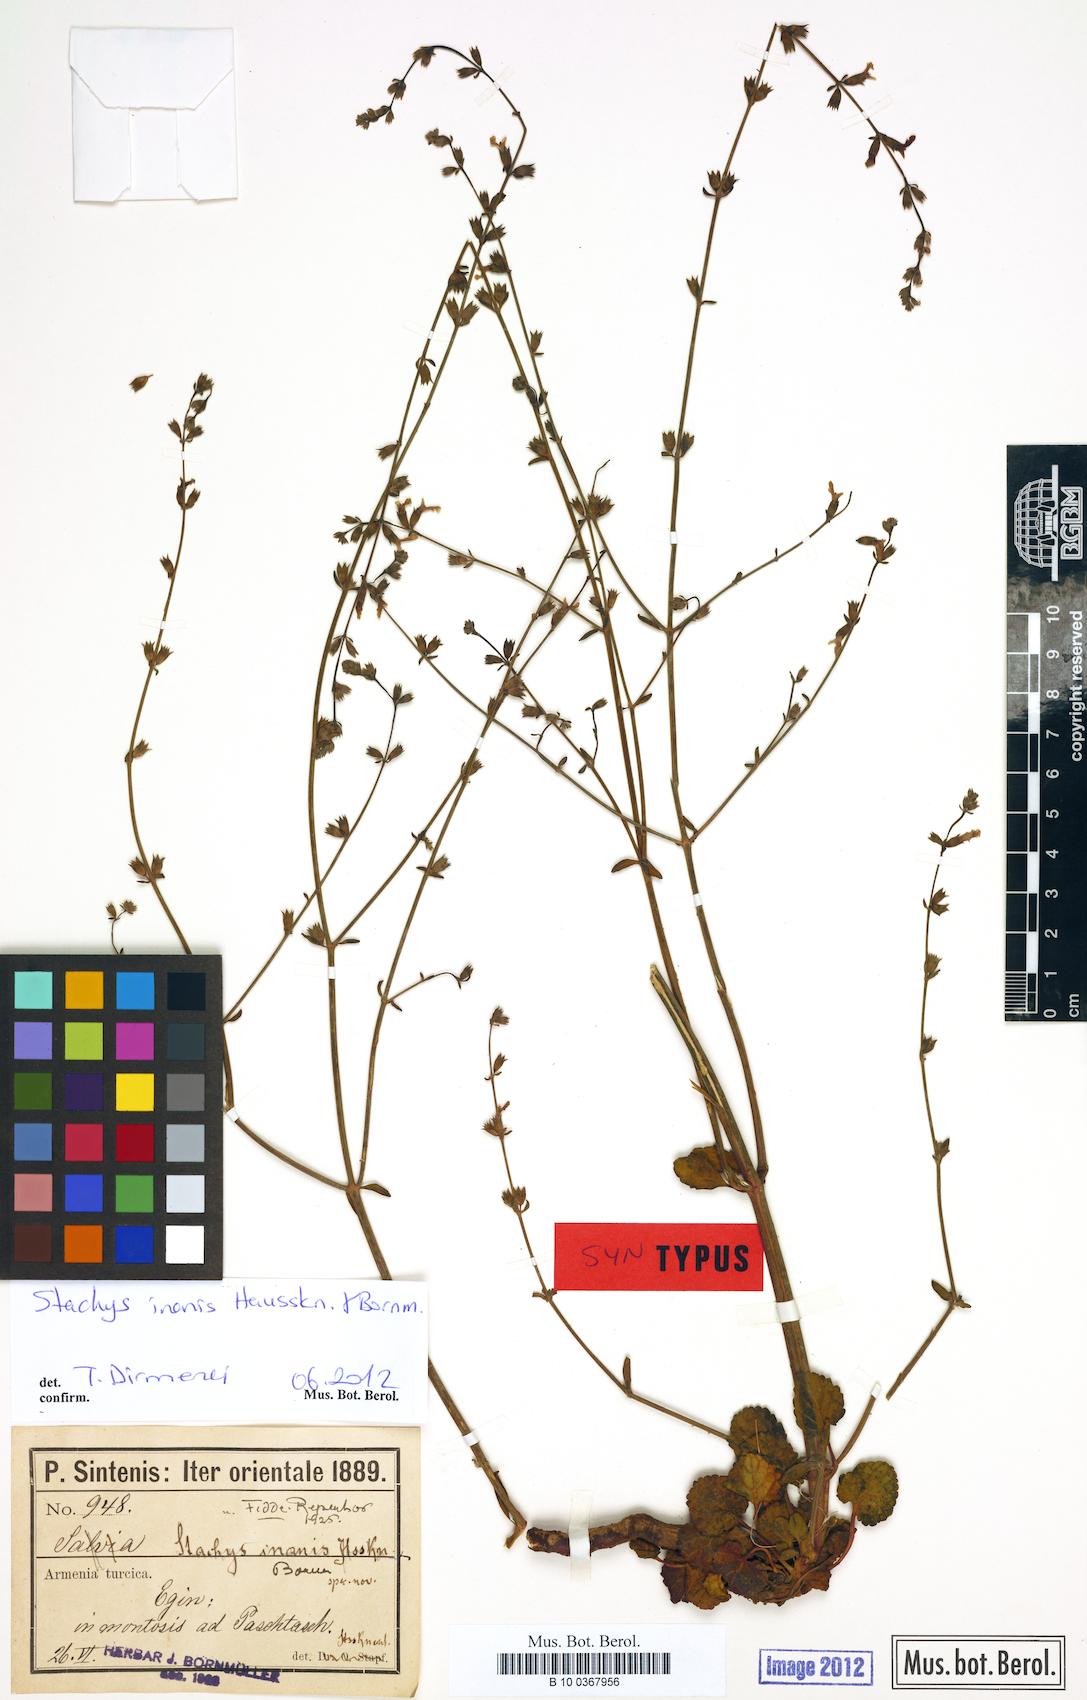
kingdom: Plantae
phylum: Tracheophyta
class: Magnoliopsida
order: Lamiales
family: Lamiaceae
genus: Stachys
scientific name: Stachys inanis
